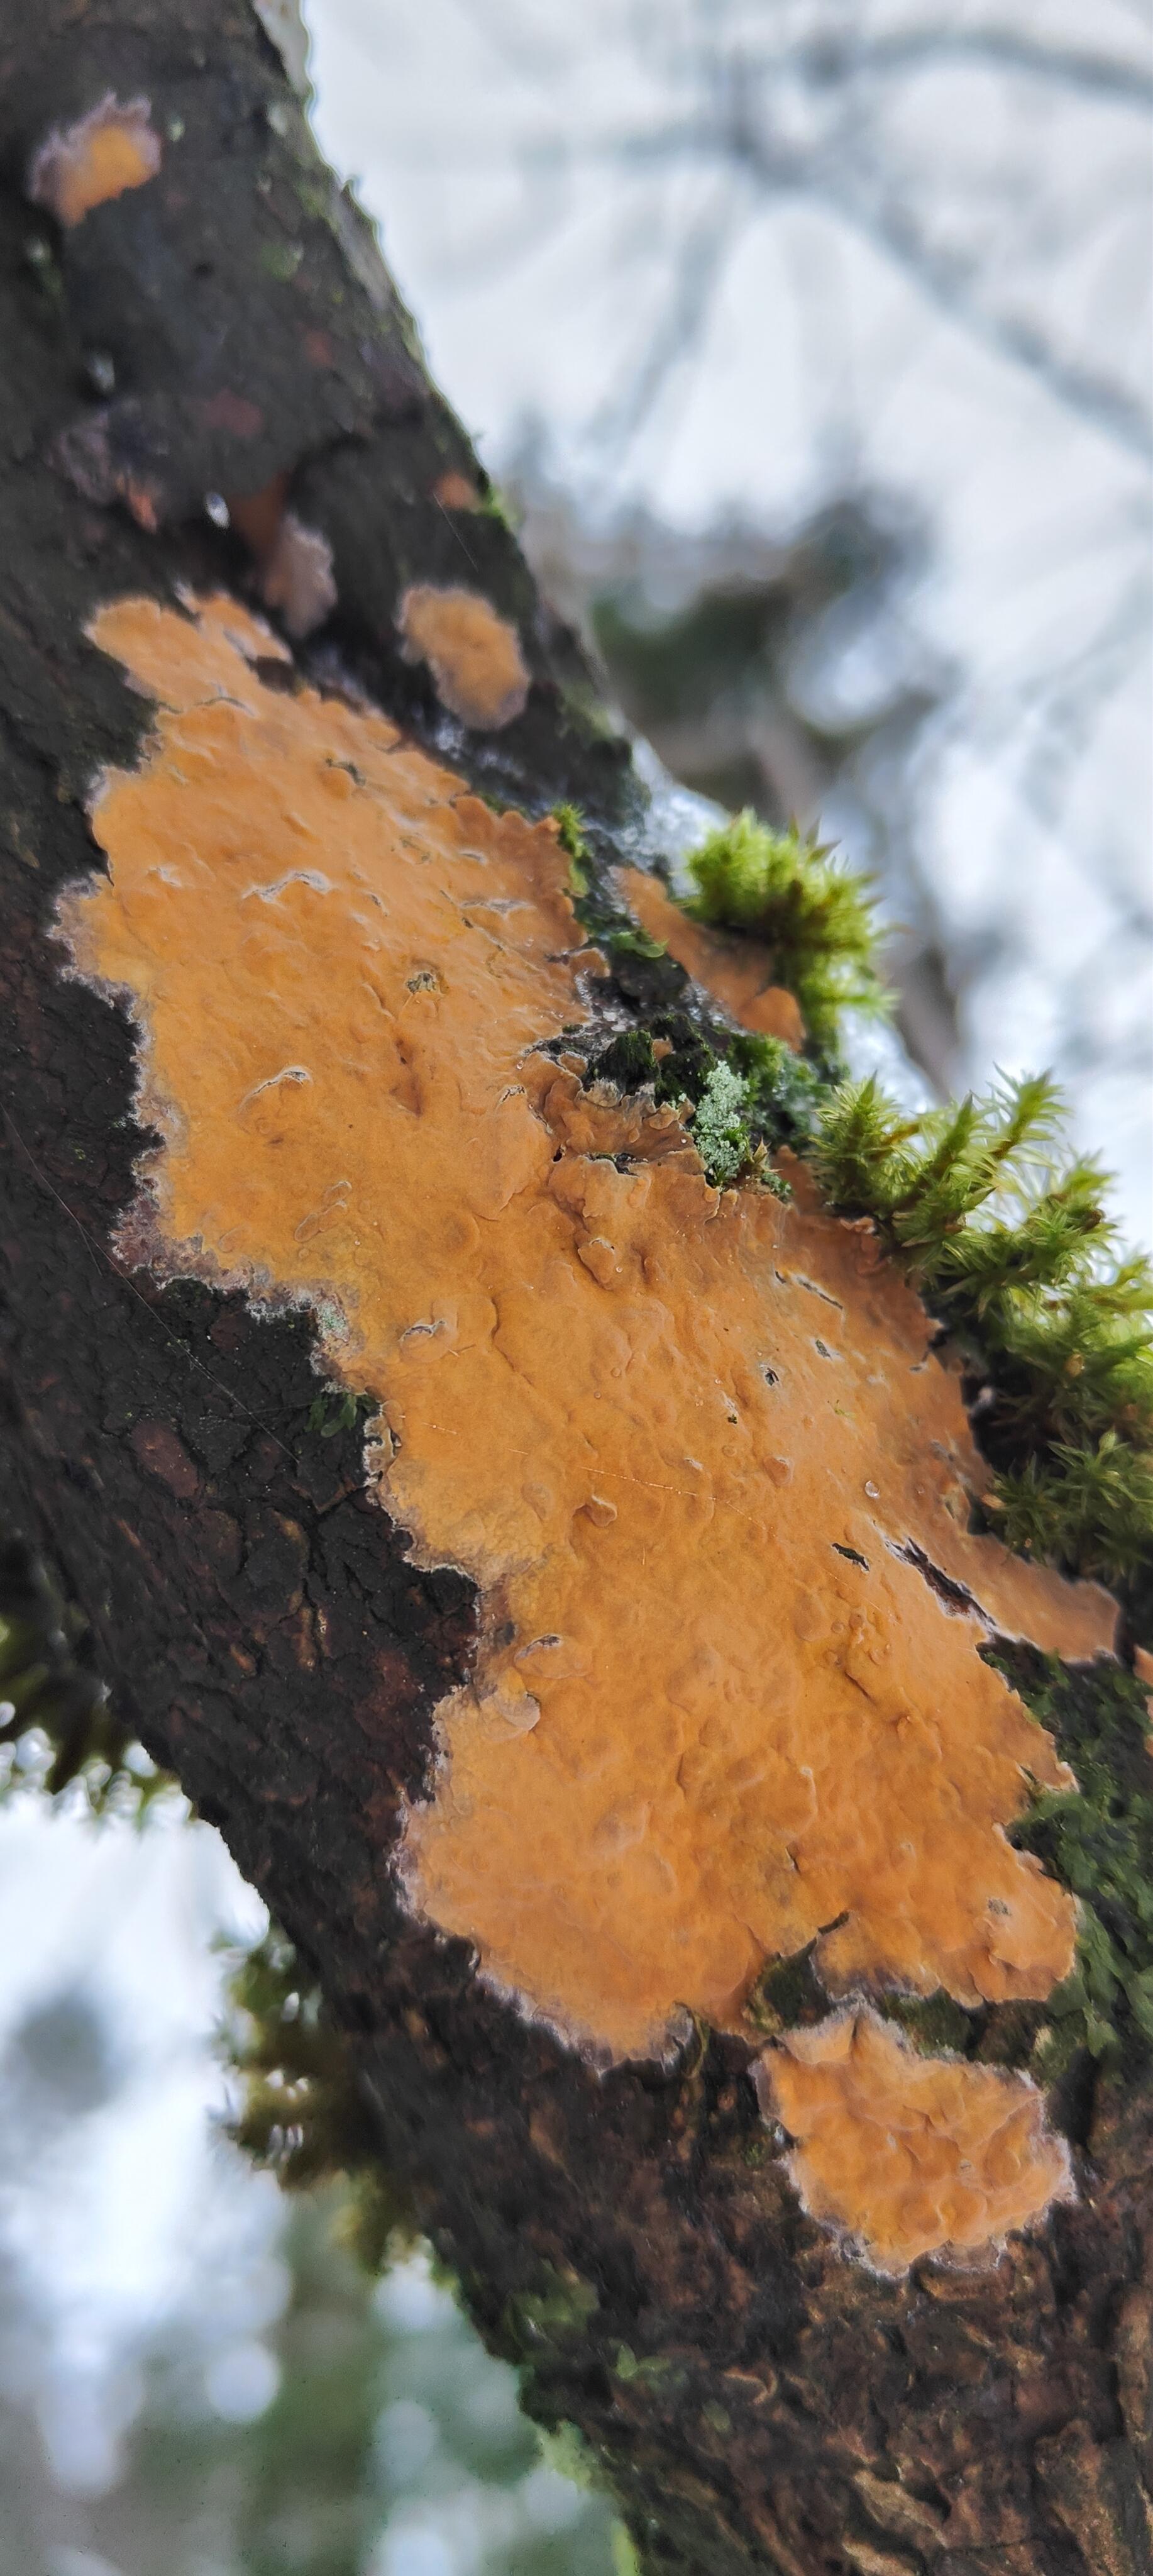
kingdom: Fungi
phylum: Basidiomycota
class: Agaricomycetes
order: Russulales
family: Peniophoraceae
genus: Peniophora
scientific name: Peniophora incarnata
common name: laksefarvet voksskind
